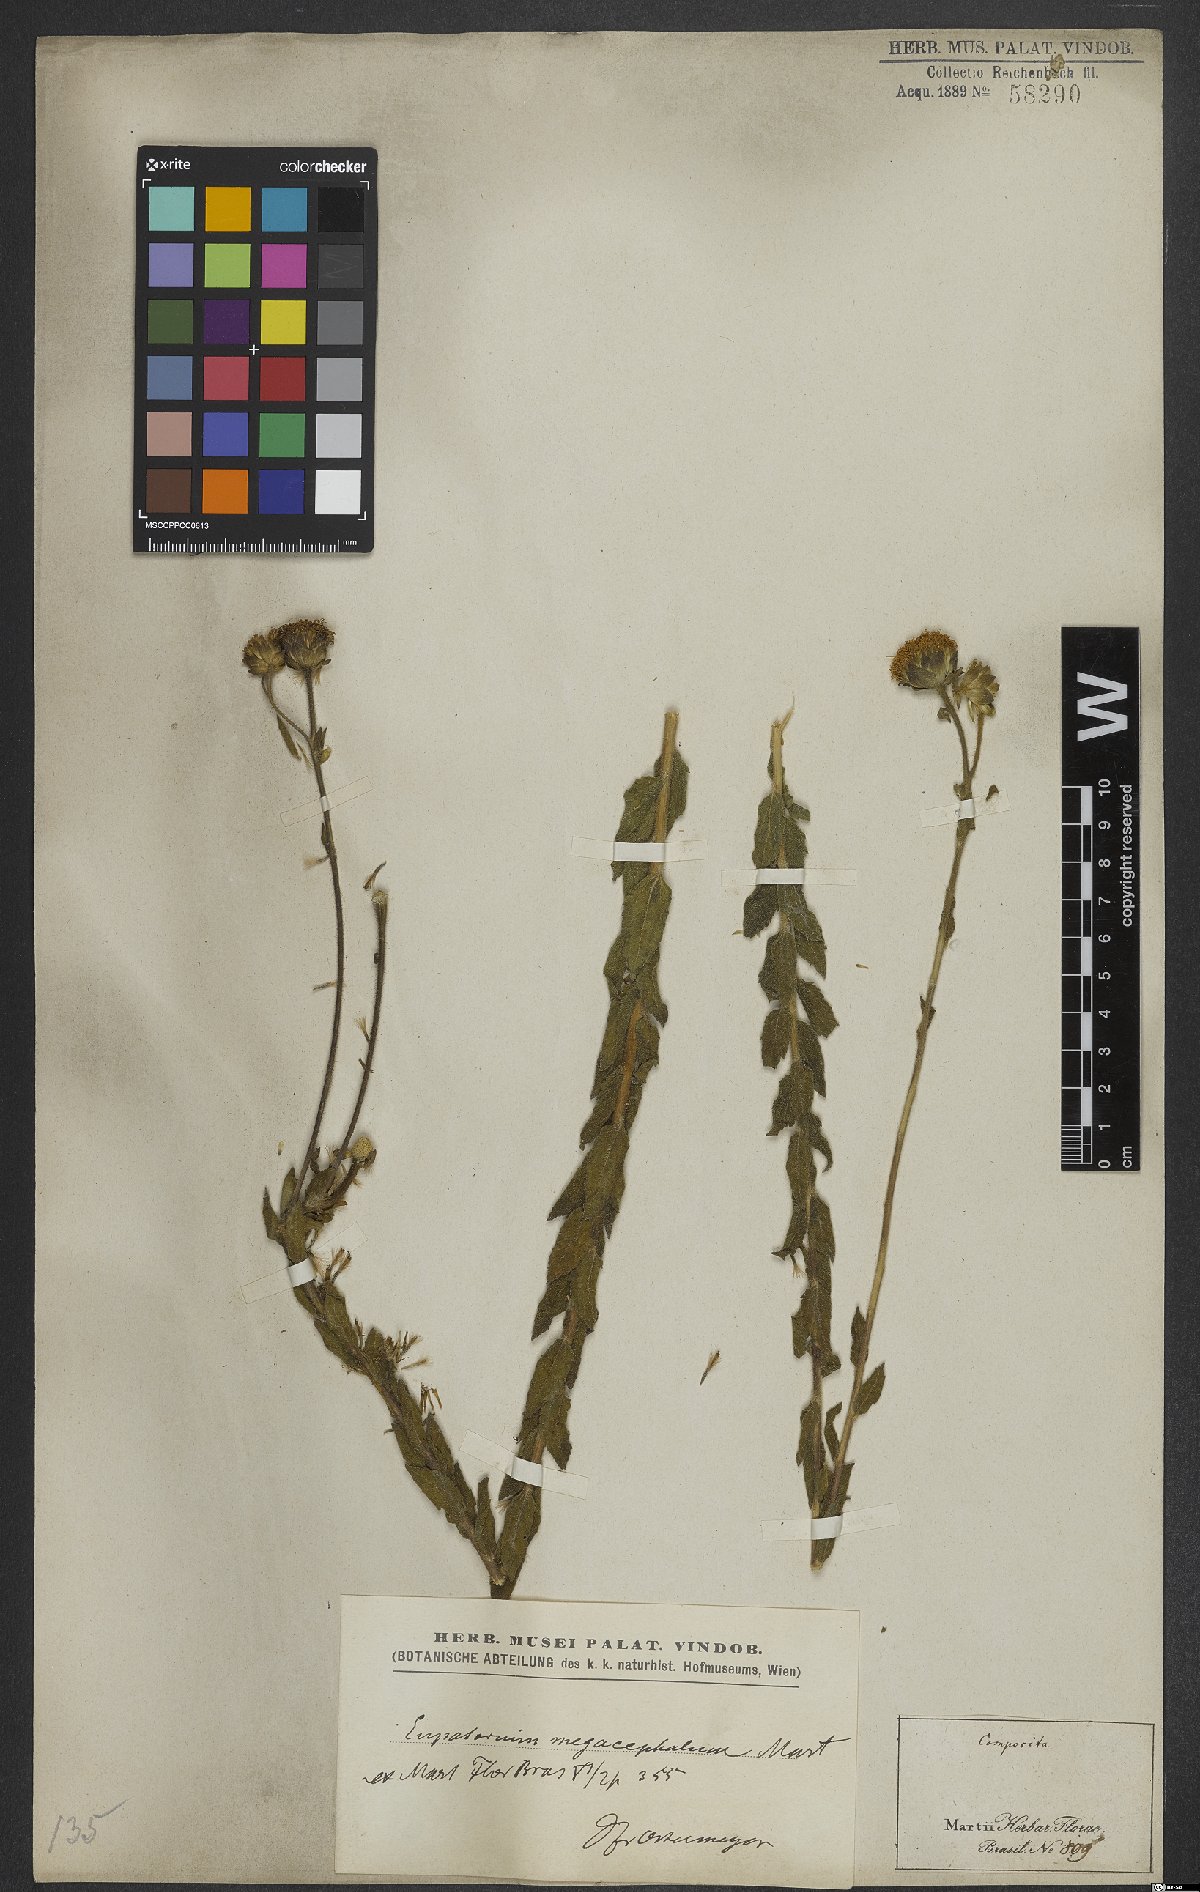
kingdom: Plantae
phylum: Tracheophyta
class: Magnoliopsida
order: Asterales
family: Asteraceae
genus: Campuloclinium
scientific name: Campuloclinium megacephalum
